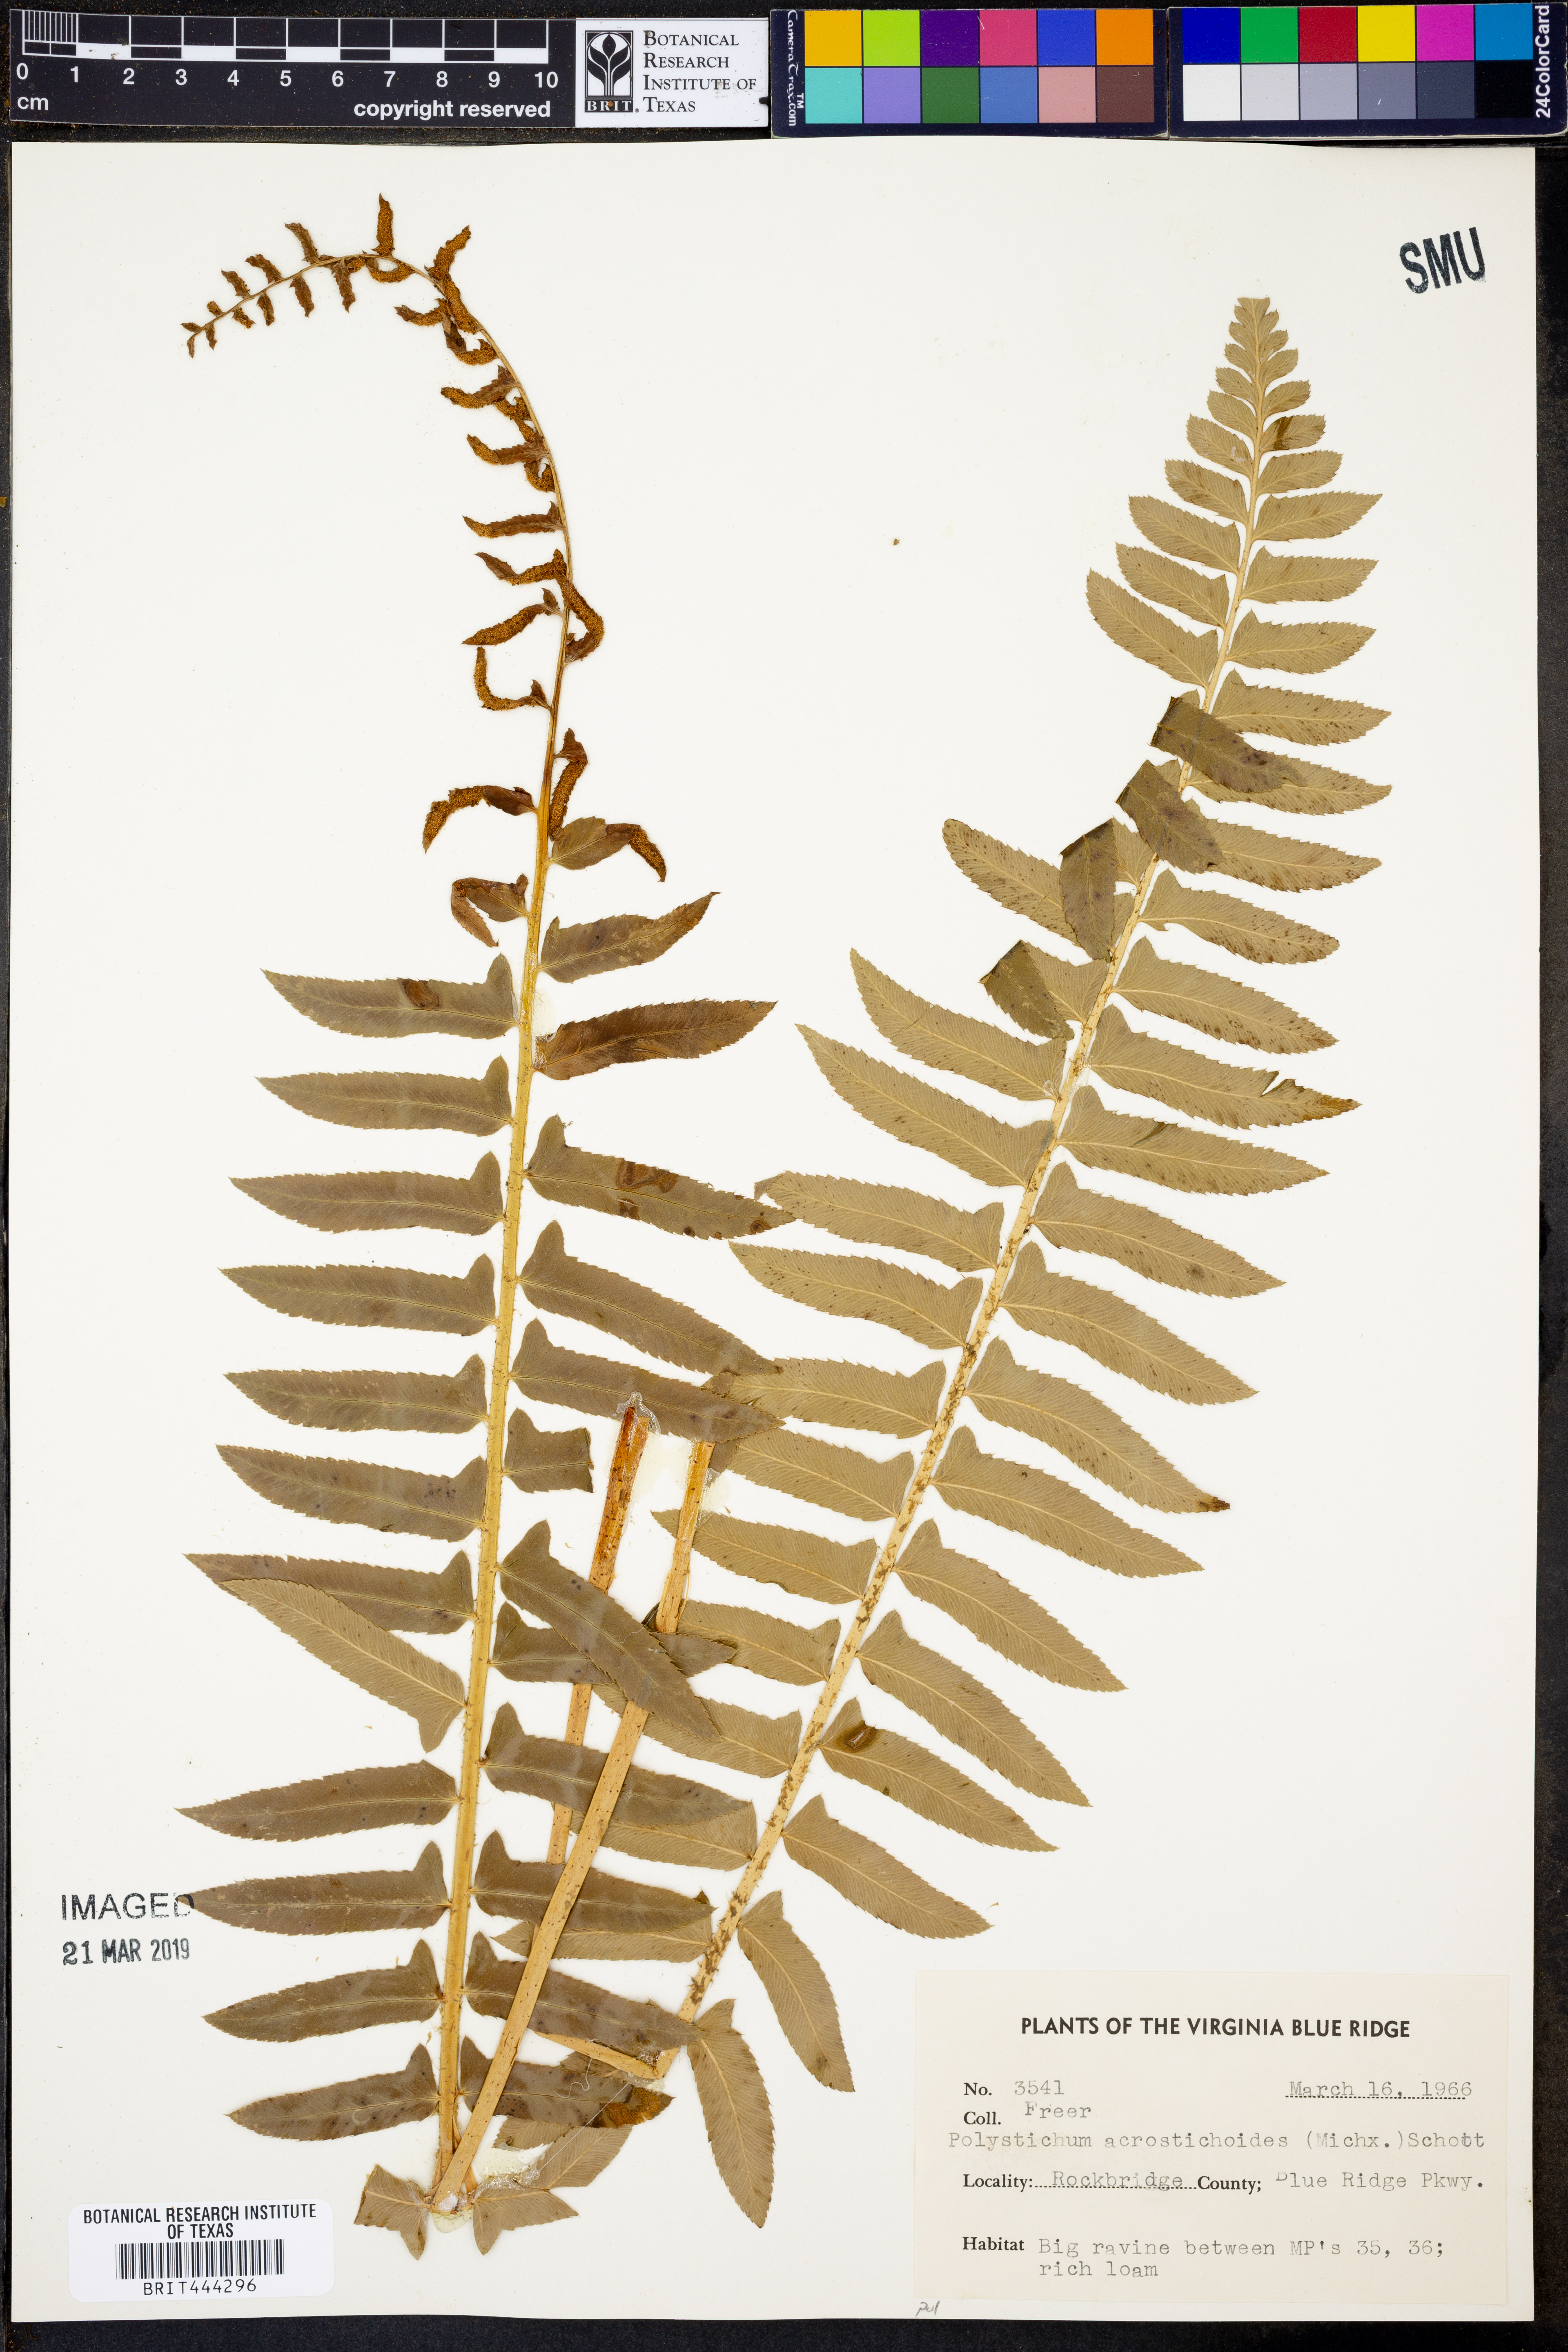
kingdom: Plantae
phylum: Tracheophyta
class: Polypodiopsida
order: Polypodiales
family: Dryopteridaceae
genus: Polystichum
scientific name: Polystichum acrostichoides
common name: Christmas fern
